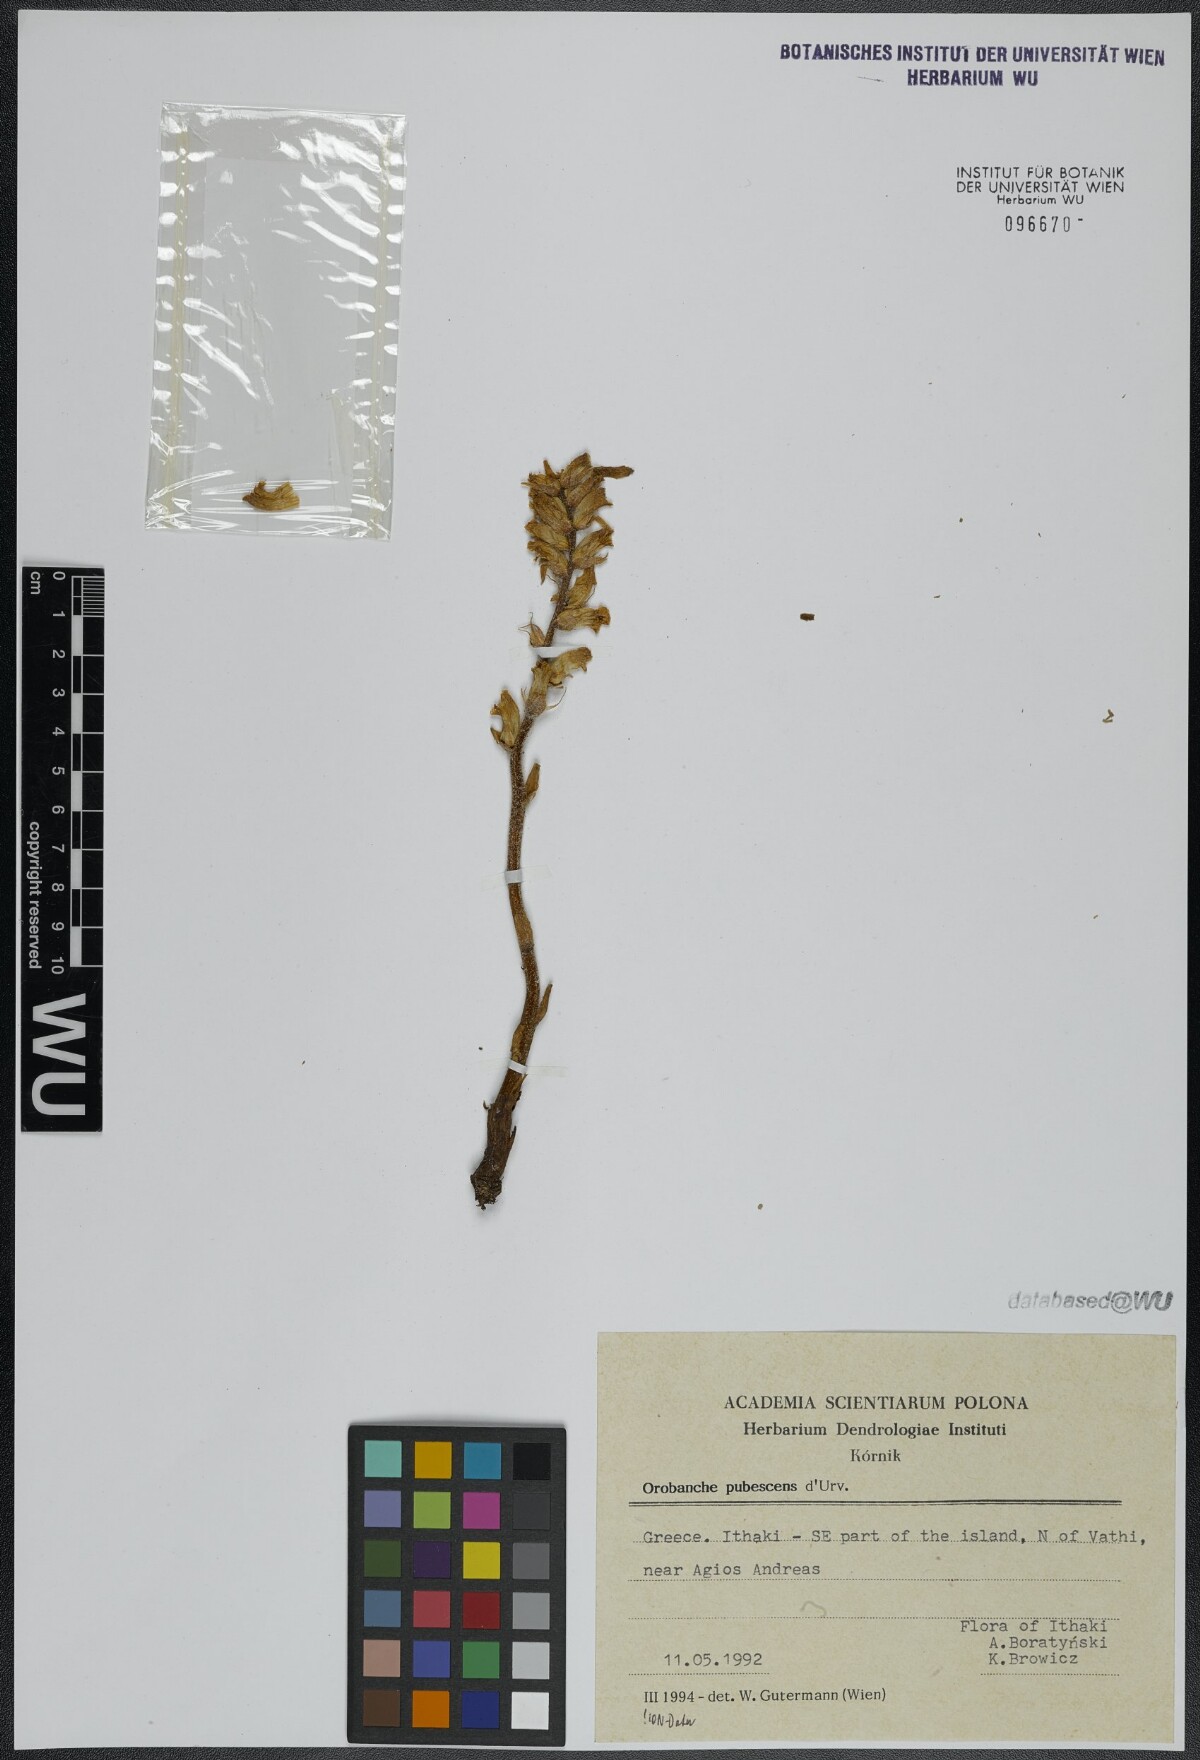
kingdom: Plantae
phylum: Tracheophyta
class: Magnoliopsida
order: Lamiales
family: Orobanchaceae
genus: Orobanche
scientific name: Orobanche pubescens
